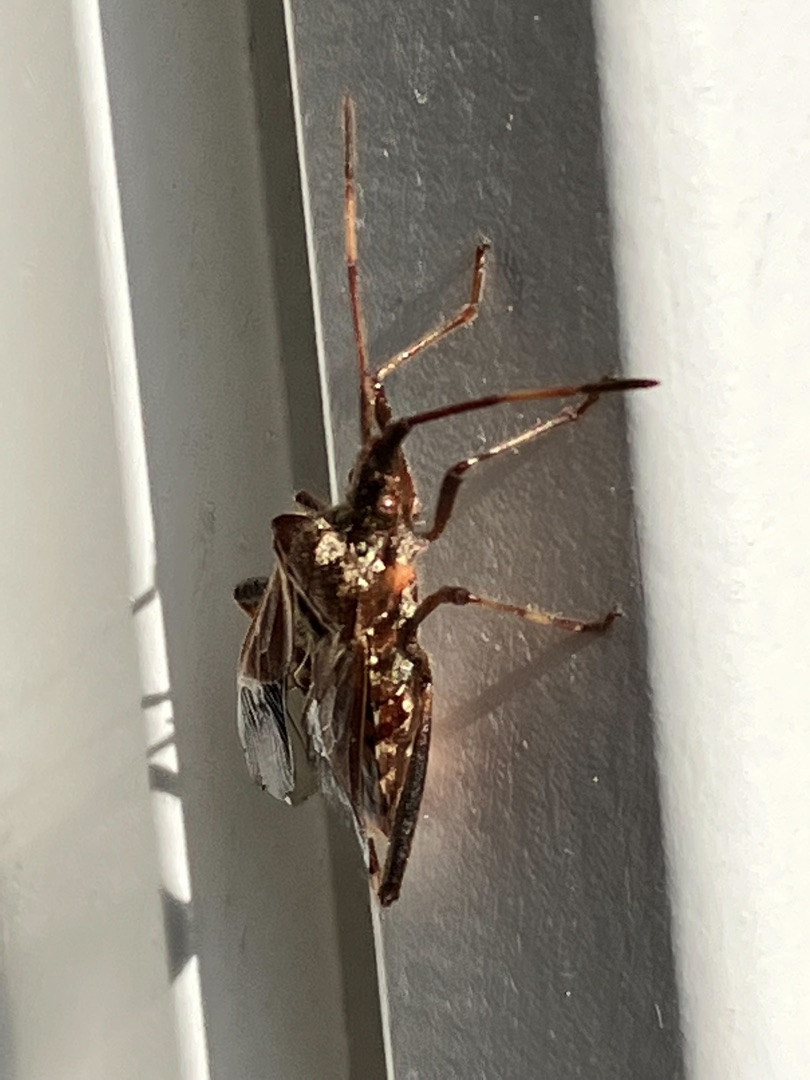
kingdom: Animalia
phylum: Arthropoda
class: Insecta
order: Hemiptera
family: Coreidae
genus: Leptoglossus
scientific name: Leptoglossus occidentalis
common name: Amerikansk fyrretæge
